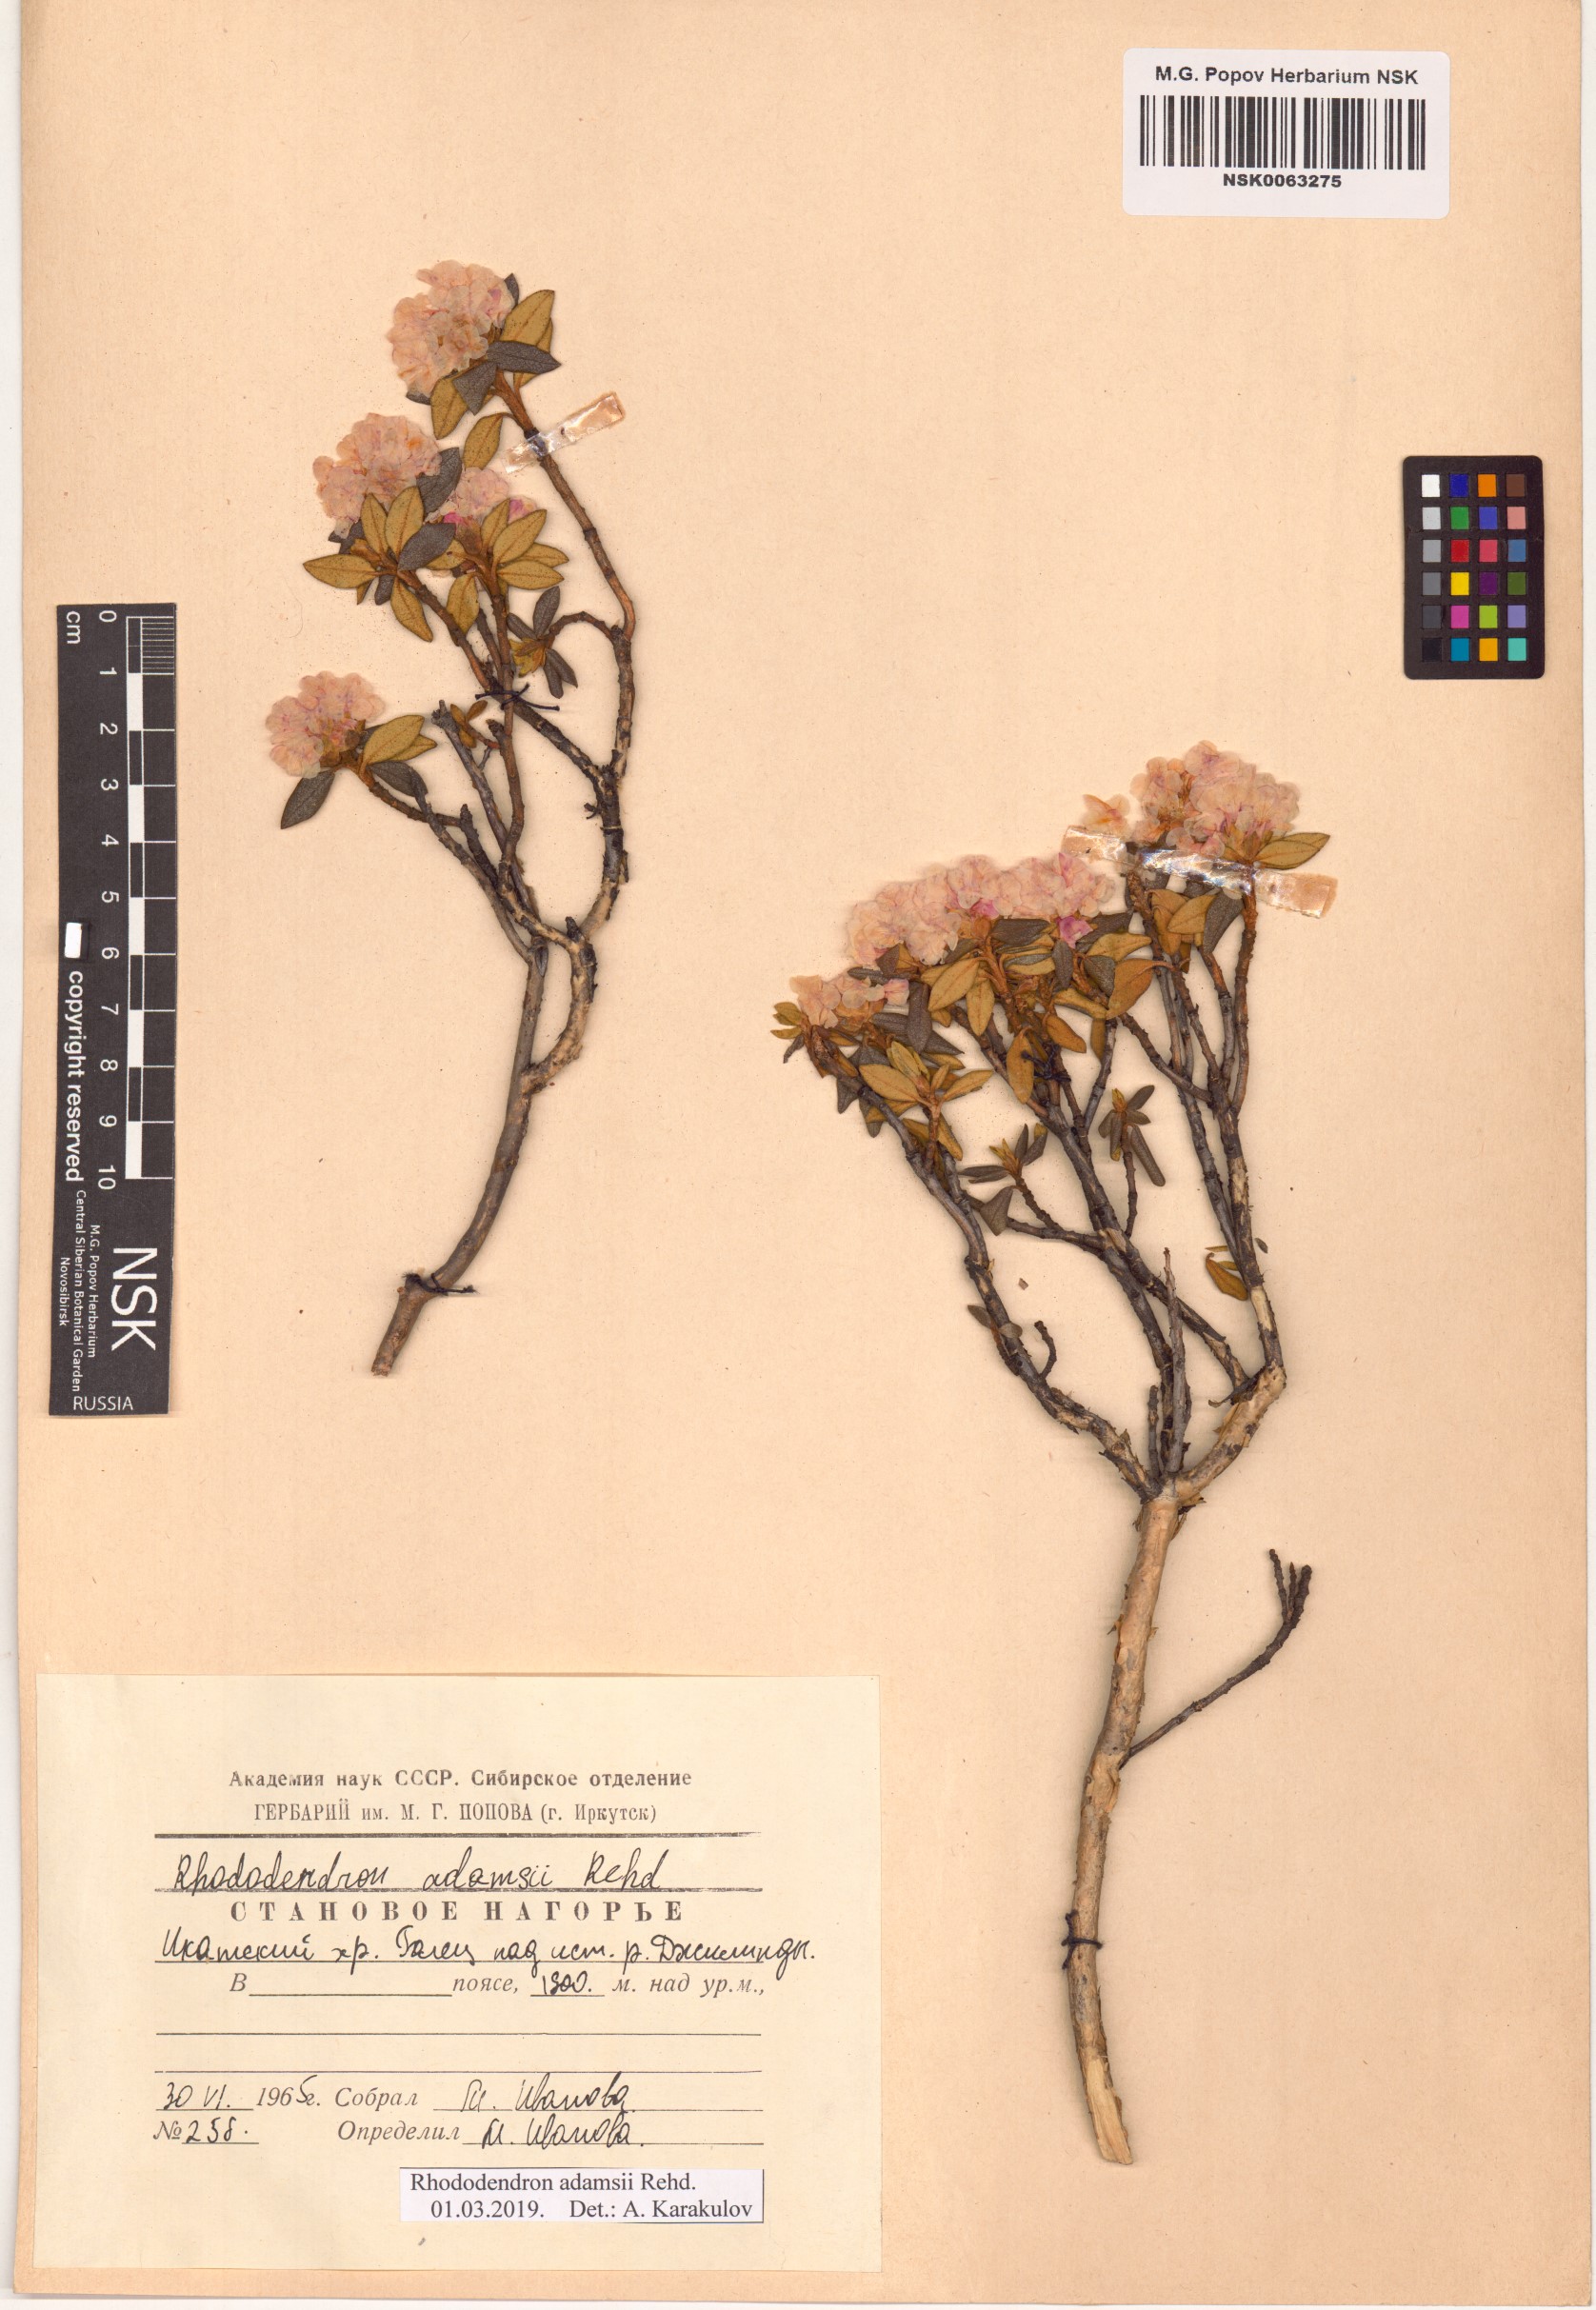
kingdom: Plantae
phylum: Tracheophyta
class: Magnoliopsida
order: Ericales
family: Ericaceae
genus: Rhododendron
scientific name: Rhododendron adamsii
